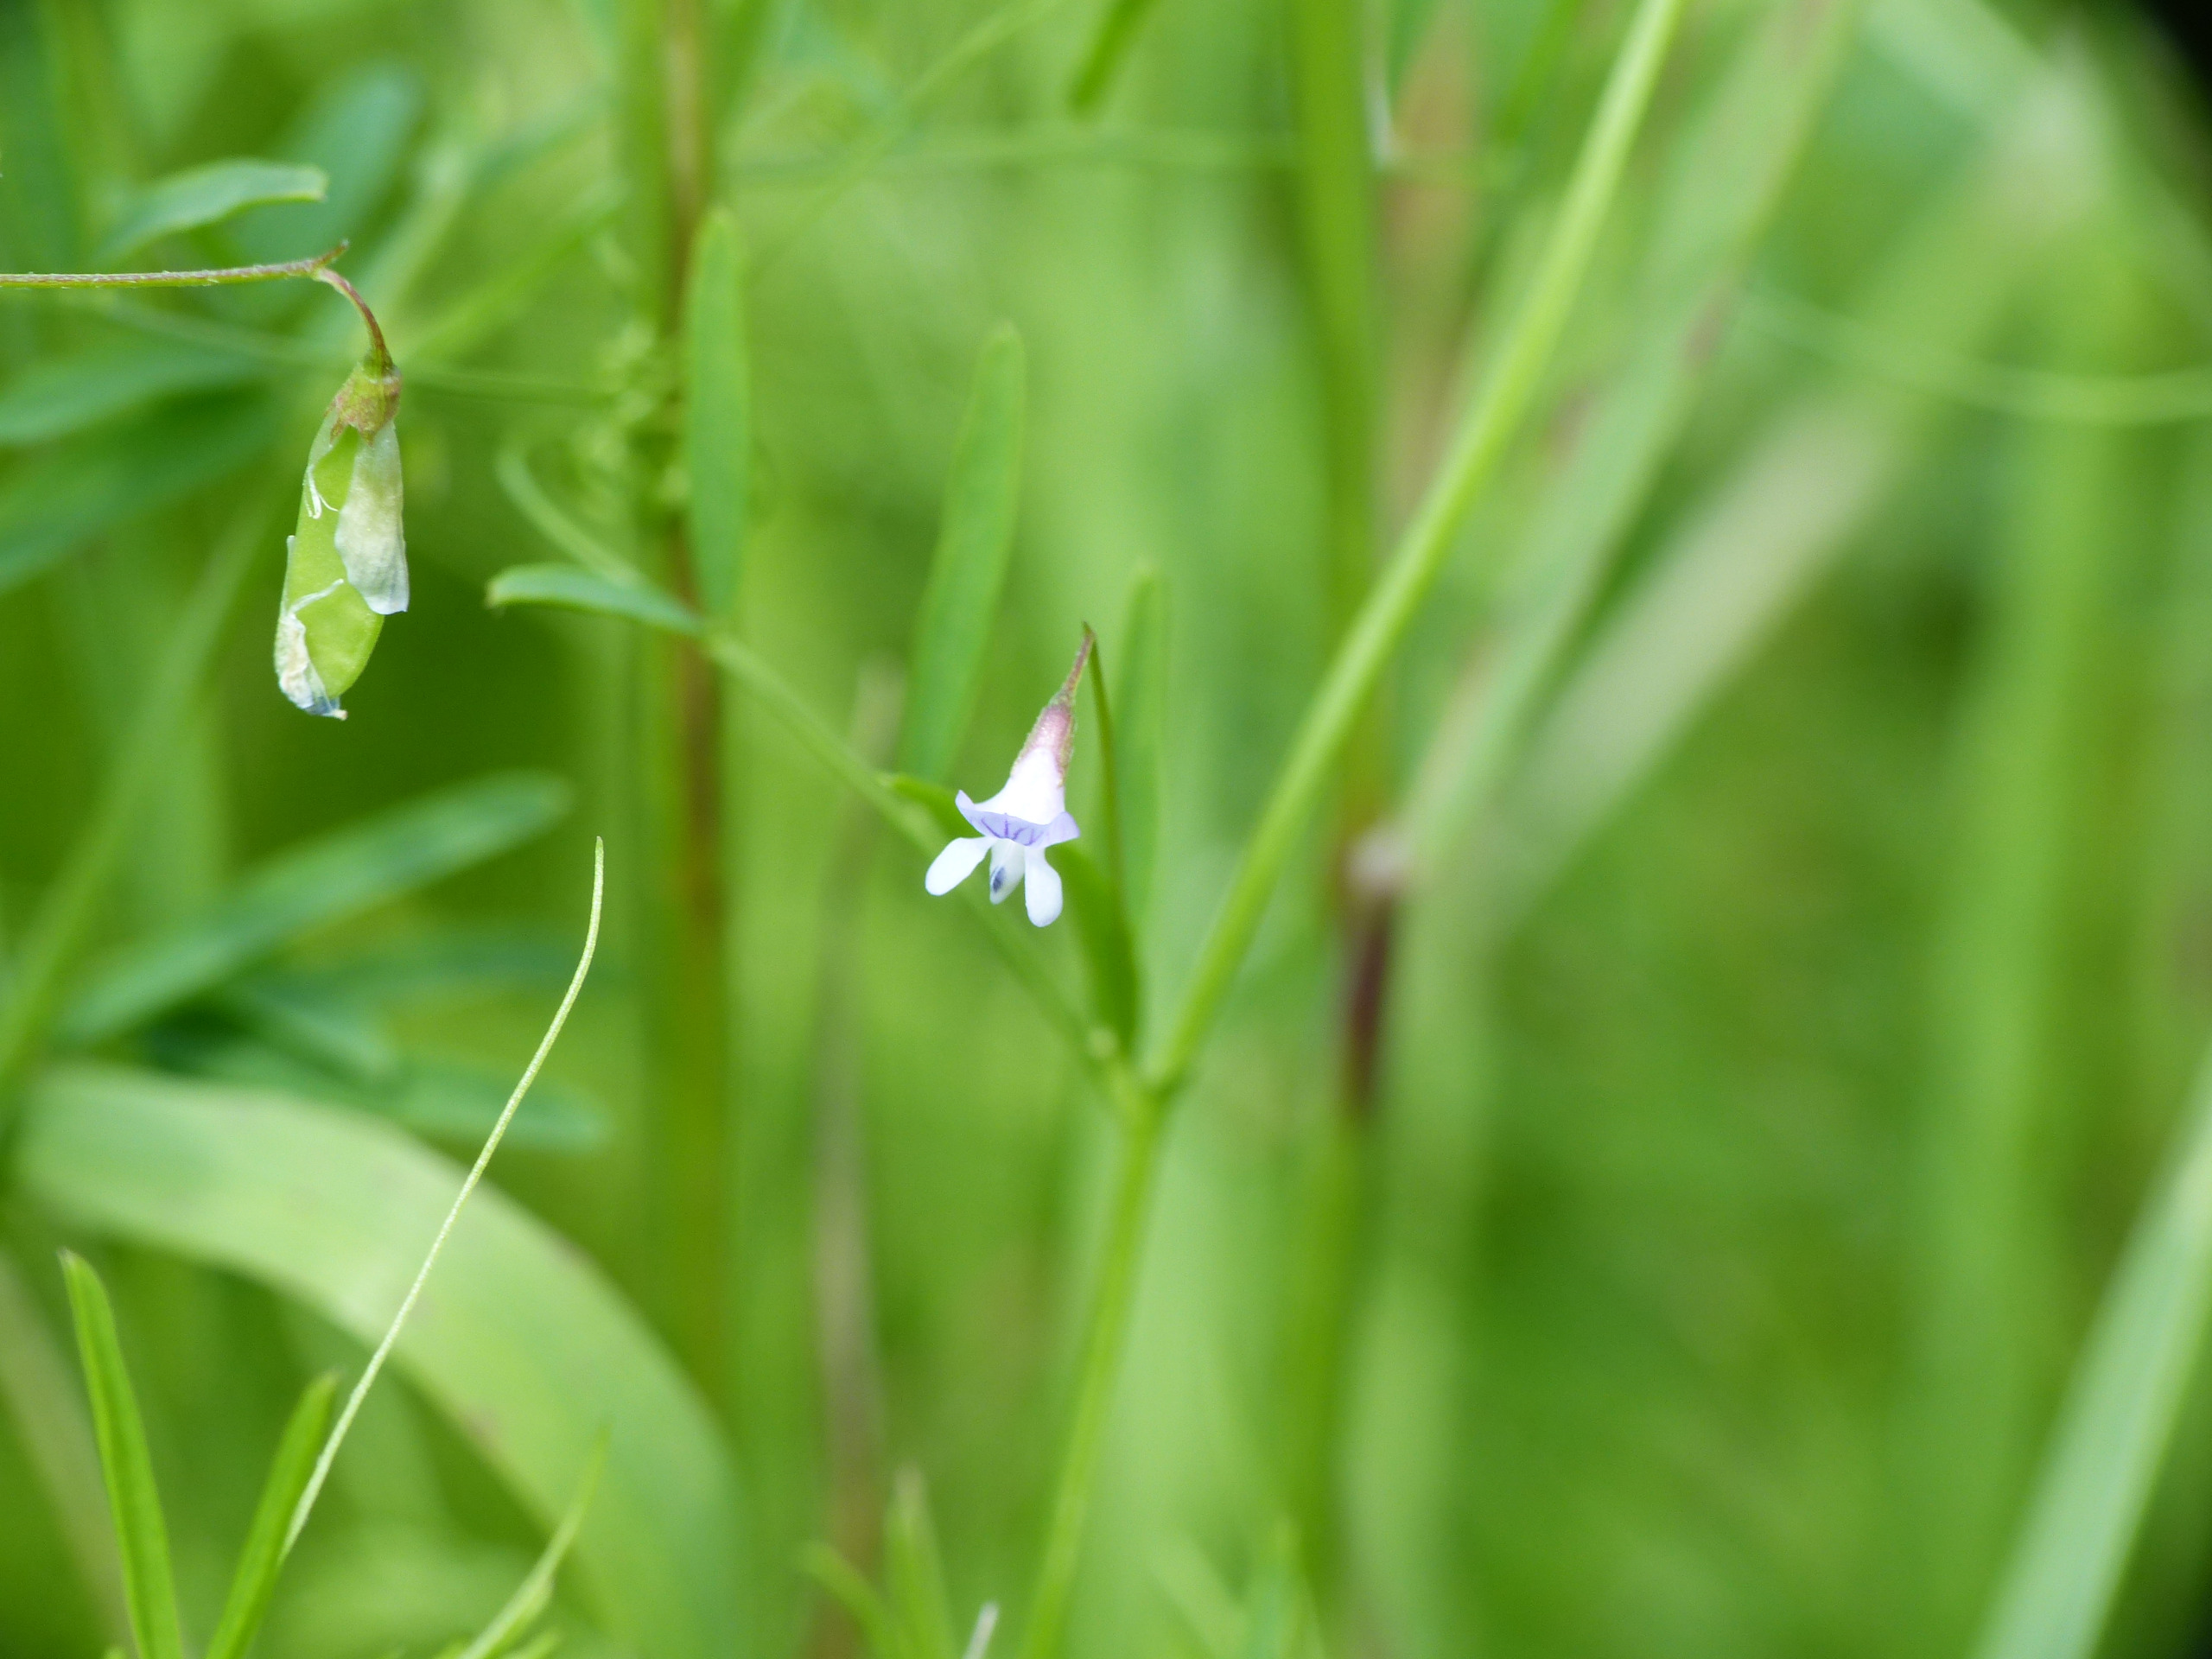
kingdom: Plantae
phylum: Tracheophyta
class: Magnoliopsida
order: Fabales
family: Fabaceae
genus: Vicia
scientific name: Vicia tetrasperma
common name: Tadder-vikke
